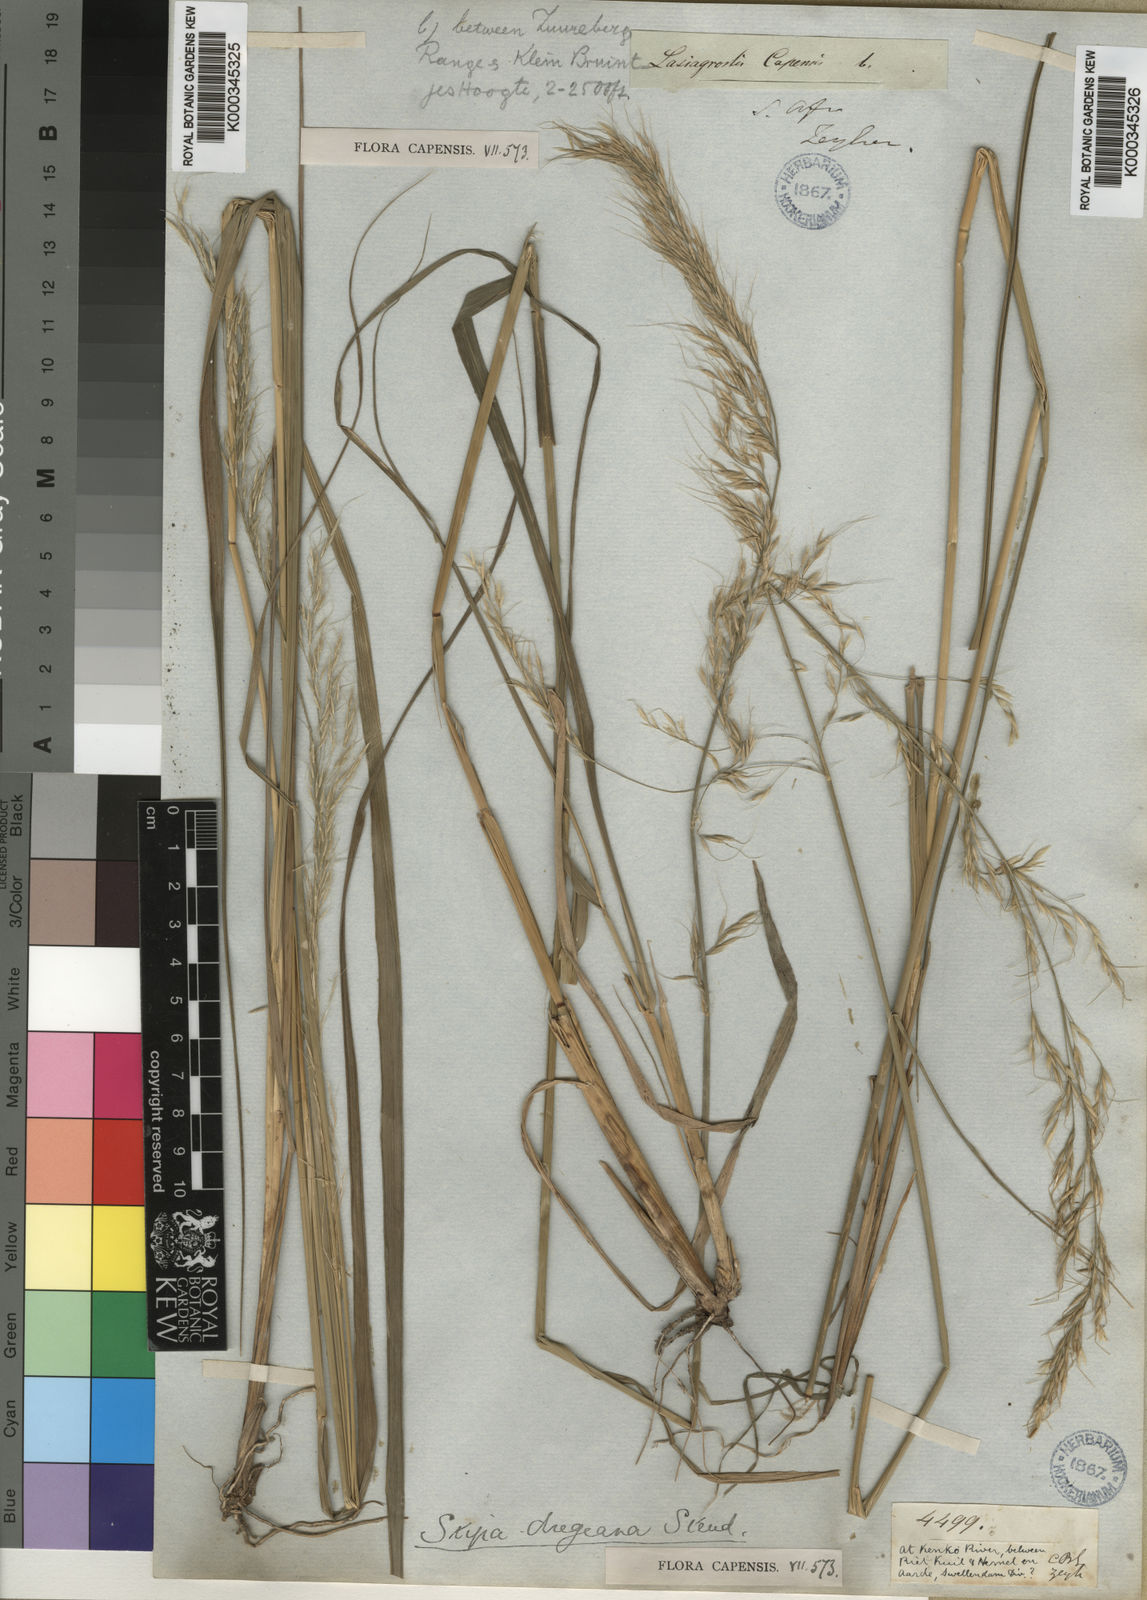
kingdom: Plantae
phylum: Tracheophyta
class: Liliopsida
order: Poales
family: Poaceae
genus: Stipa
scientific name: Stipa dregeana
